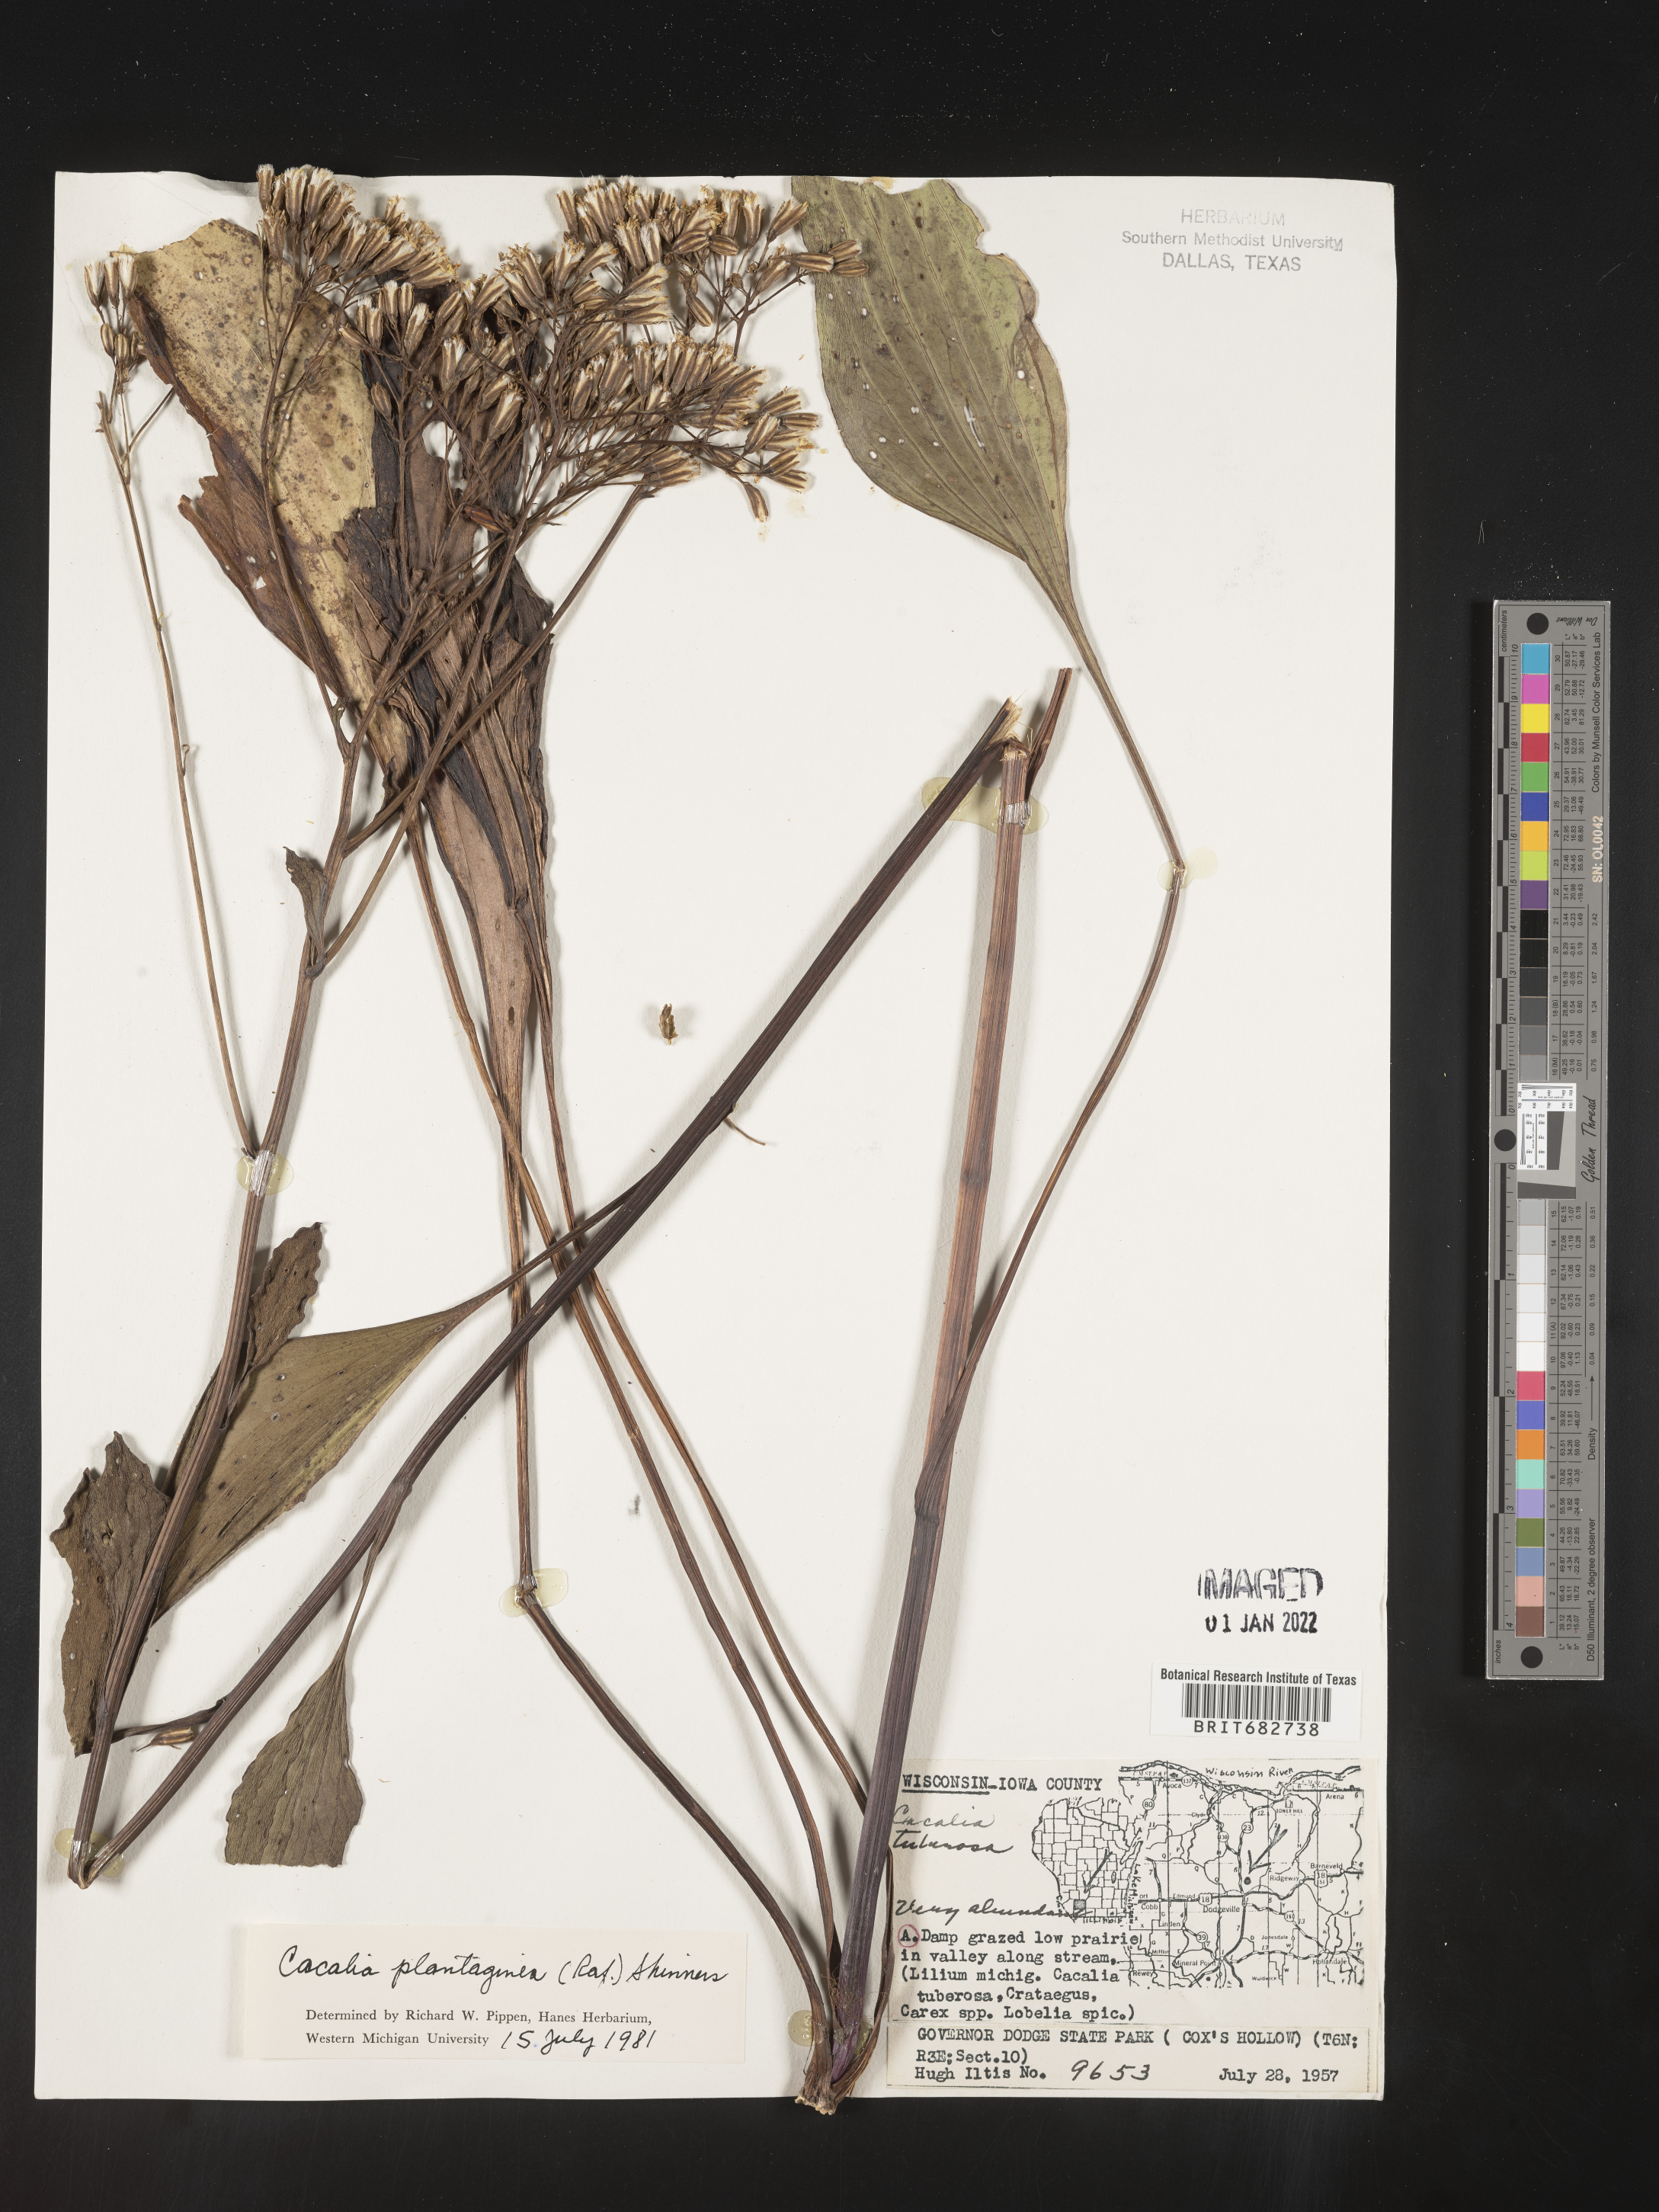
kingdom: Plantae
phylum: Tracheophyta
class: Magnoliopsida
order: Asterales
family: Asteraceae
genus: Arnoglossum
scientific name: Arnoglossum plantagineum
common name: Groove-stemmed indian-plantain
